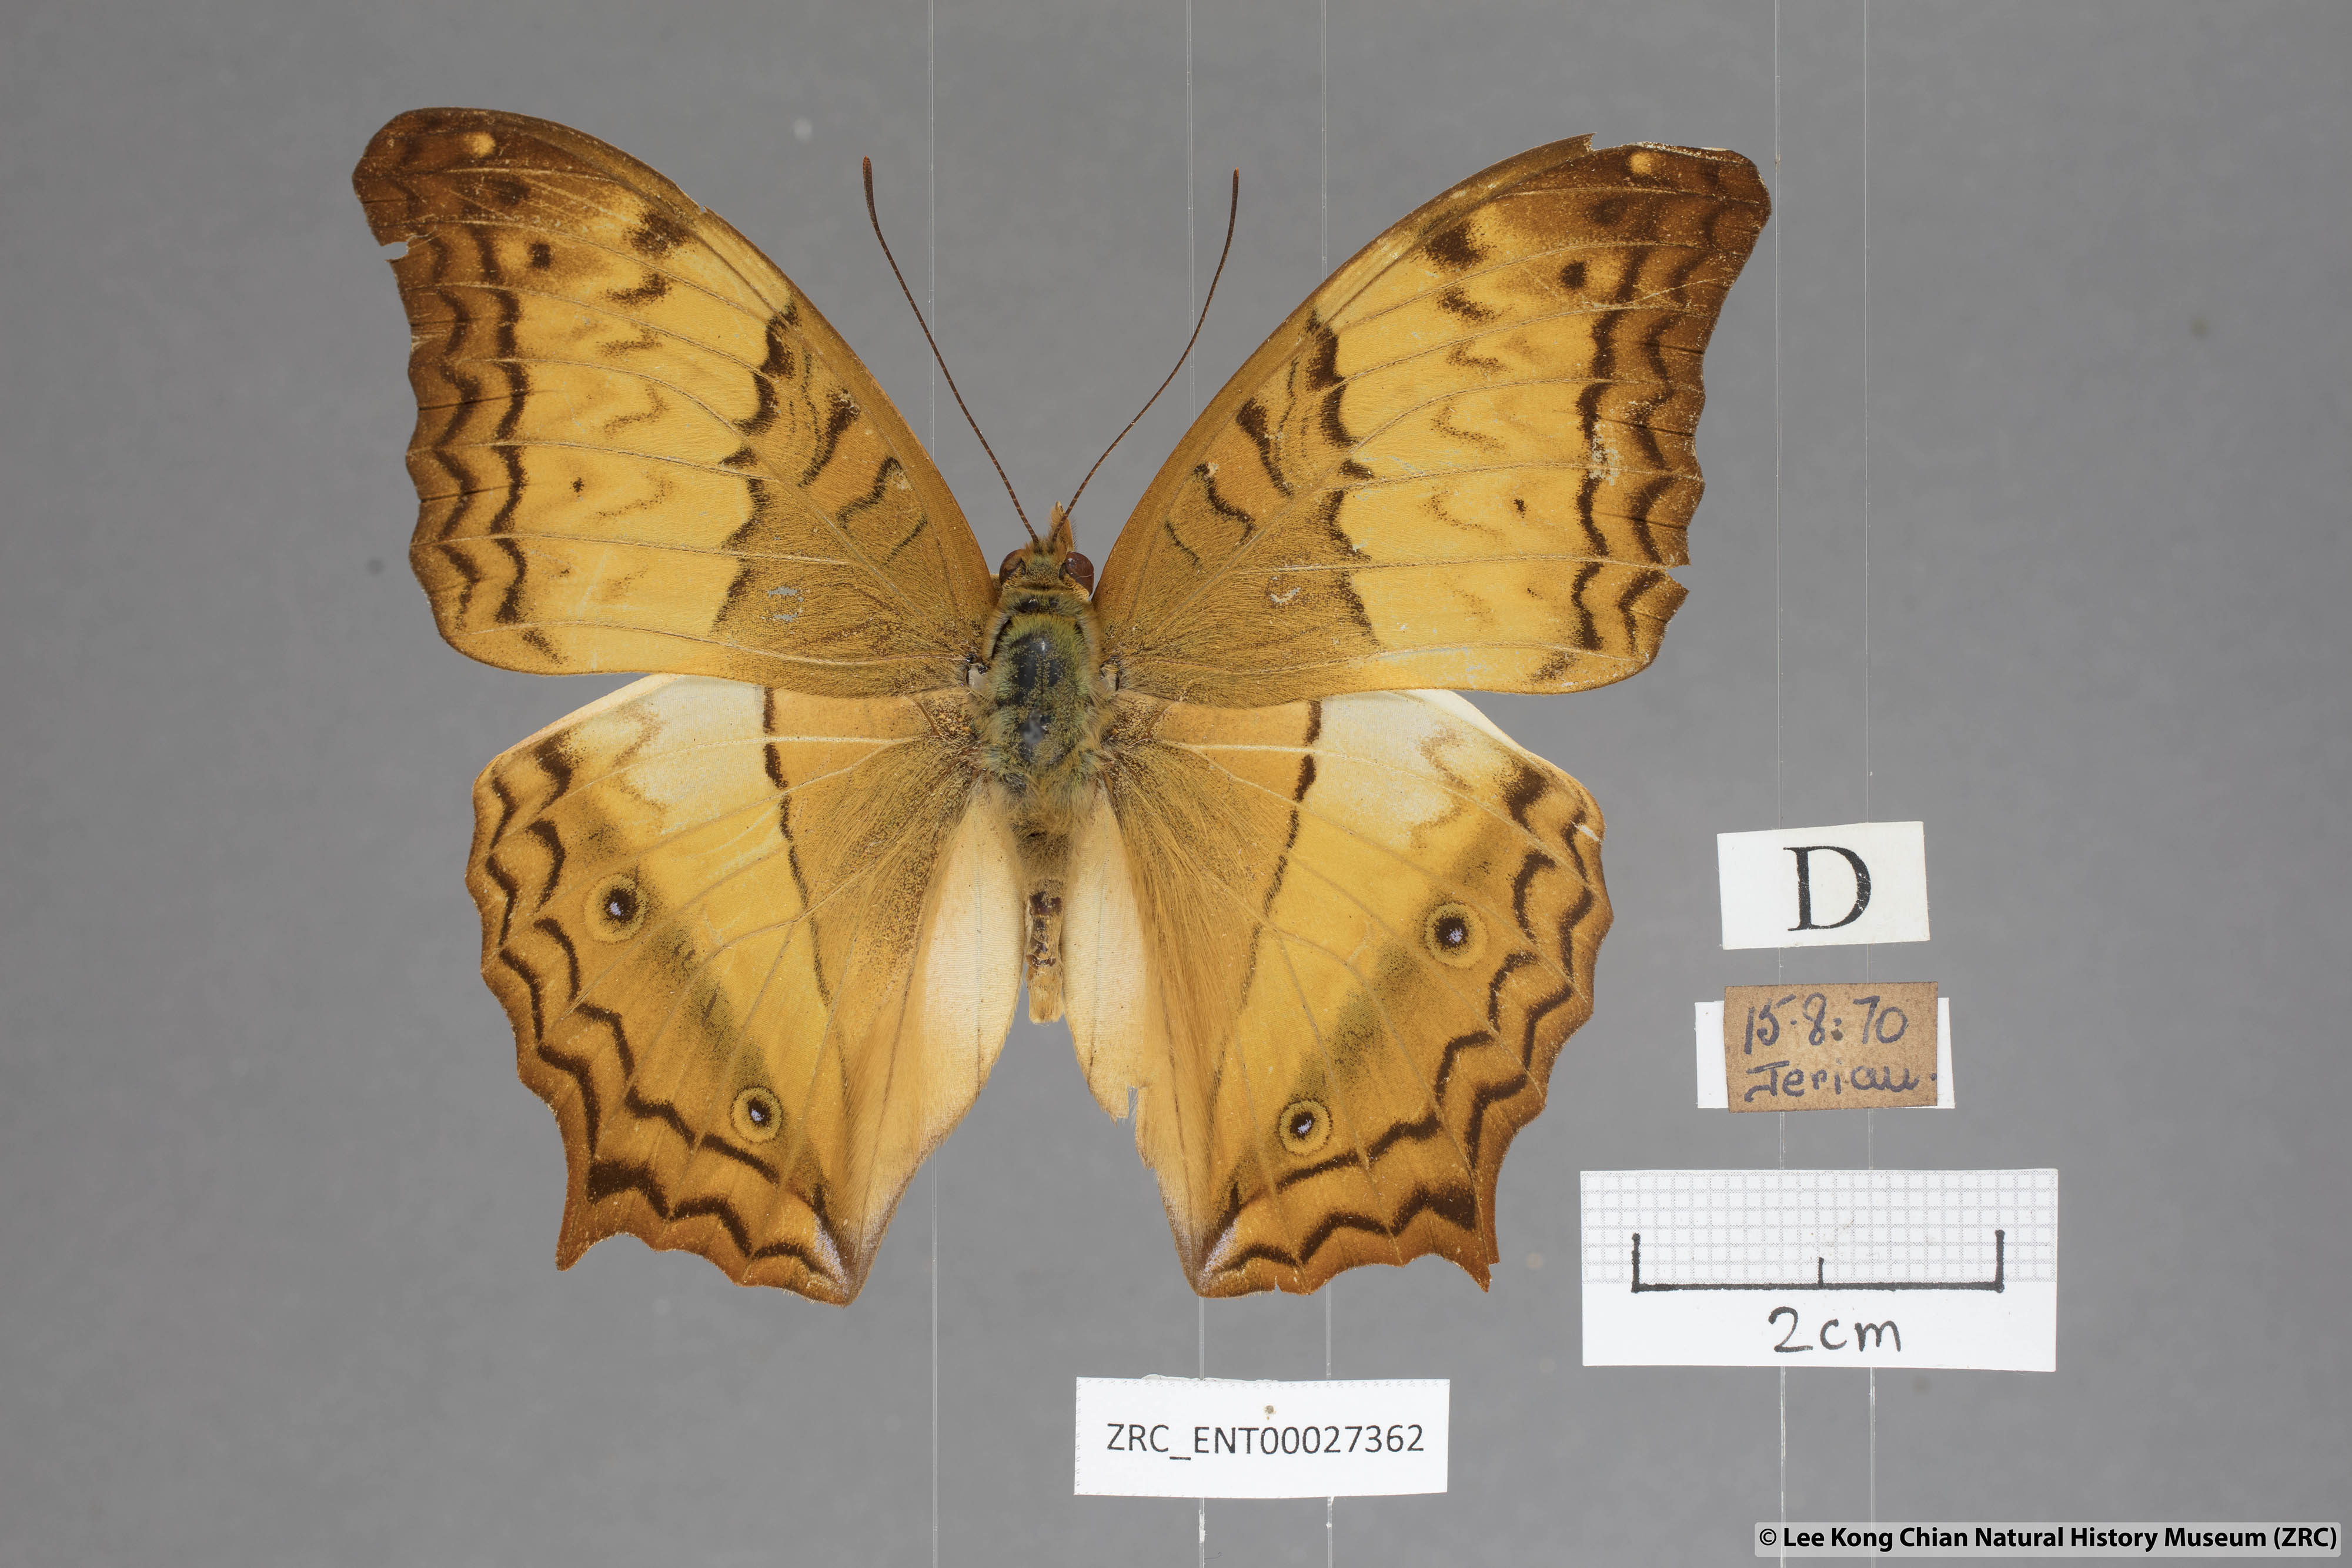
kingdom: Animalia
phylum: Arthropoda
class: Insecta
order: Lepidoptera
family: Nymphalidae
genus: Vindula
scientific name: Vindula erota
